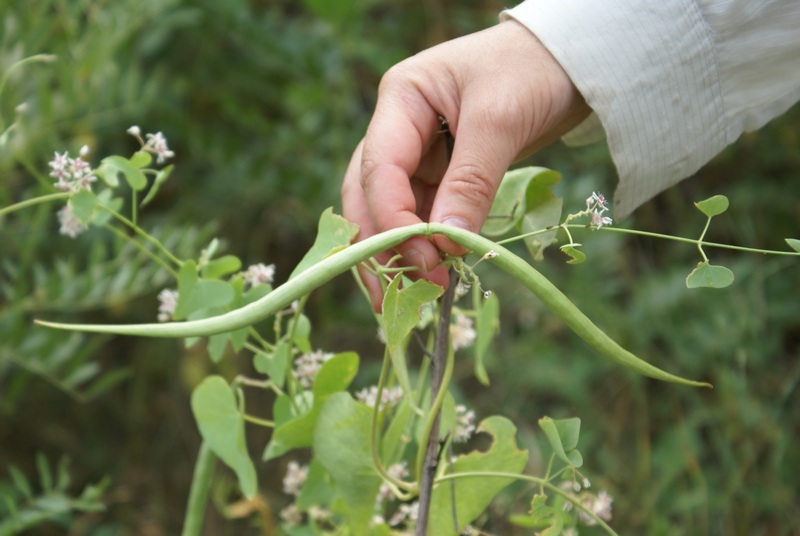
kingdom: Plantae
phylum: Tracheophyta
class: Magnoliopsida
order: Gentianales
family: Apocynaceae
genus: Cynanchum
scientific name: Cynanchum acutum
